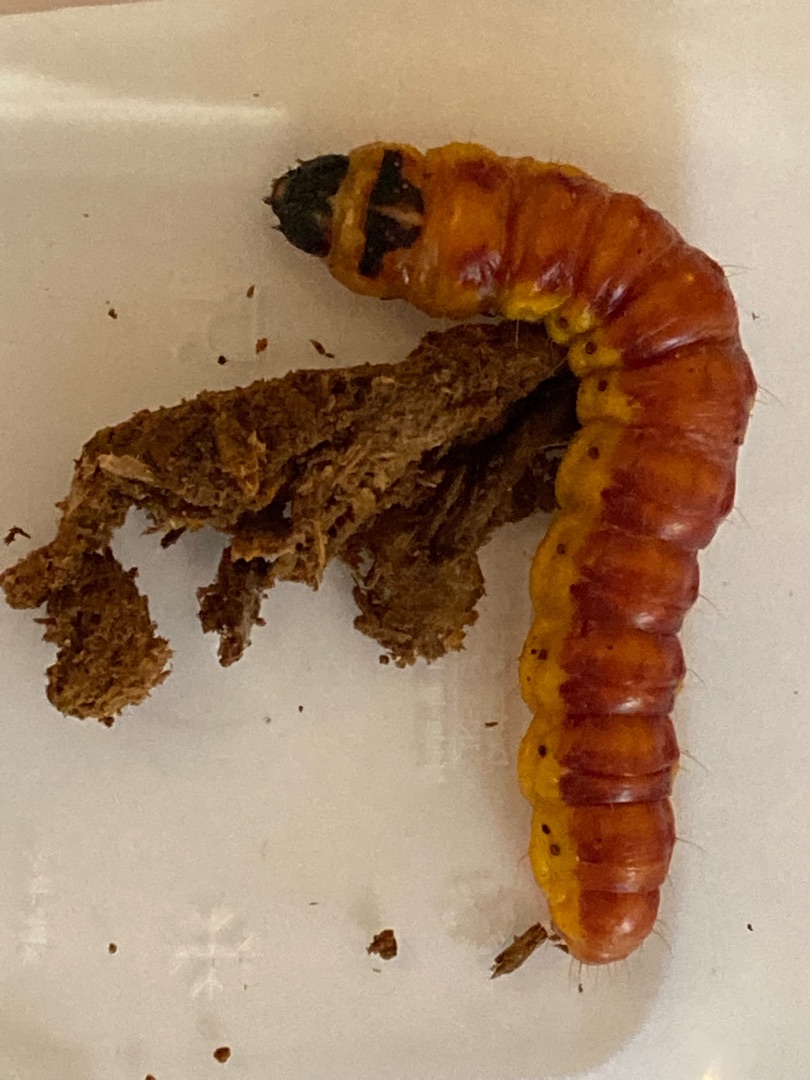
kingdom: Animalia
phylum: Arthropoda
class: Insecta
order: Lepidoptera
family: Cossidae
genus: Cossus
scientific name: Cossus cossus
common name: Pileborer
